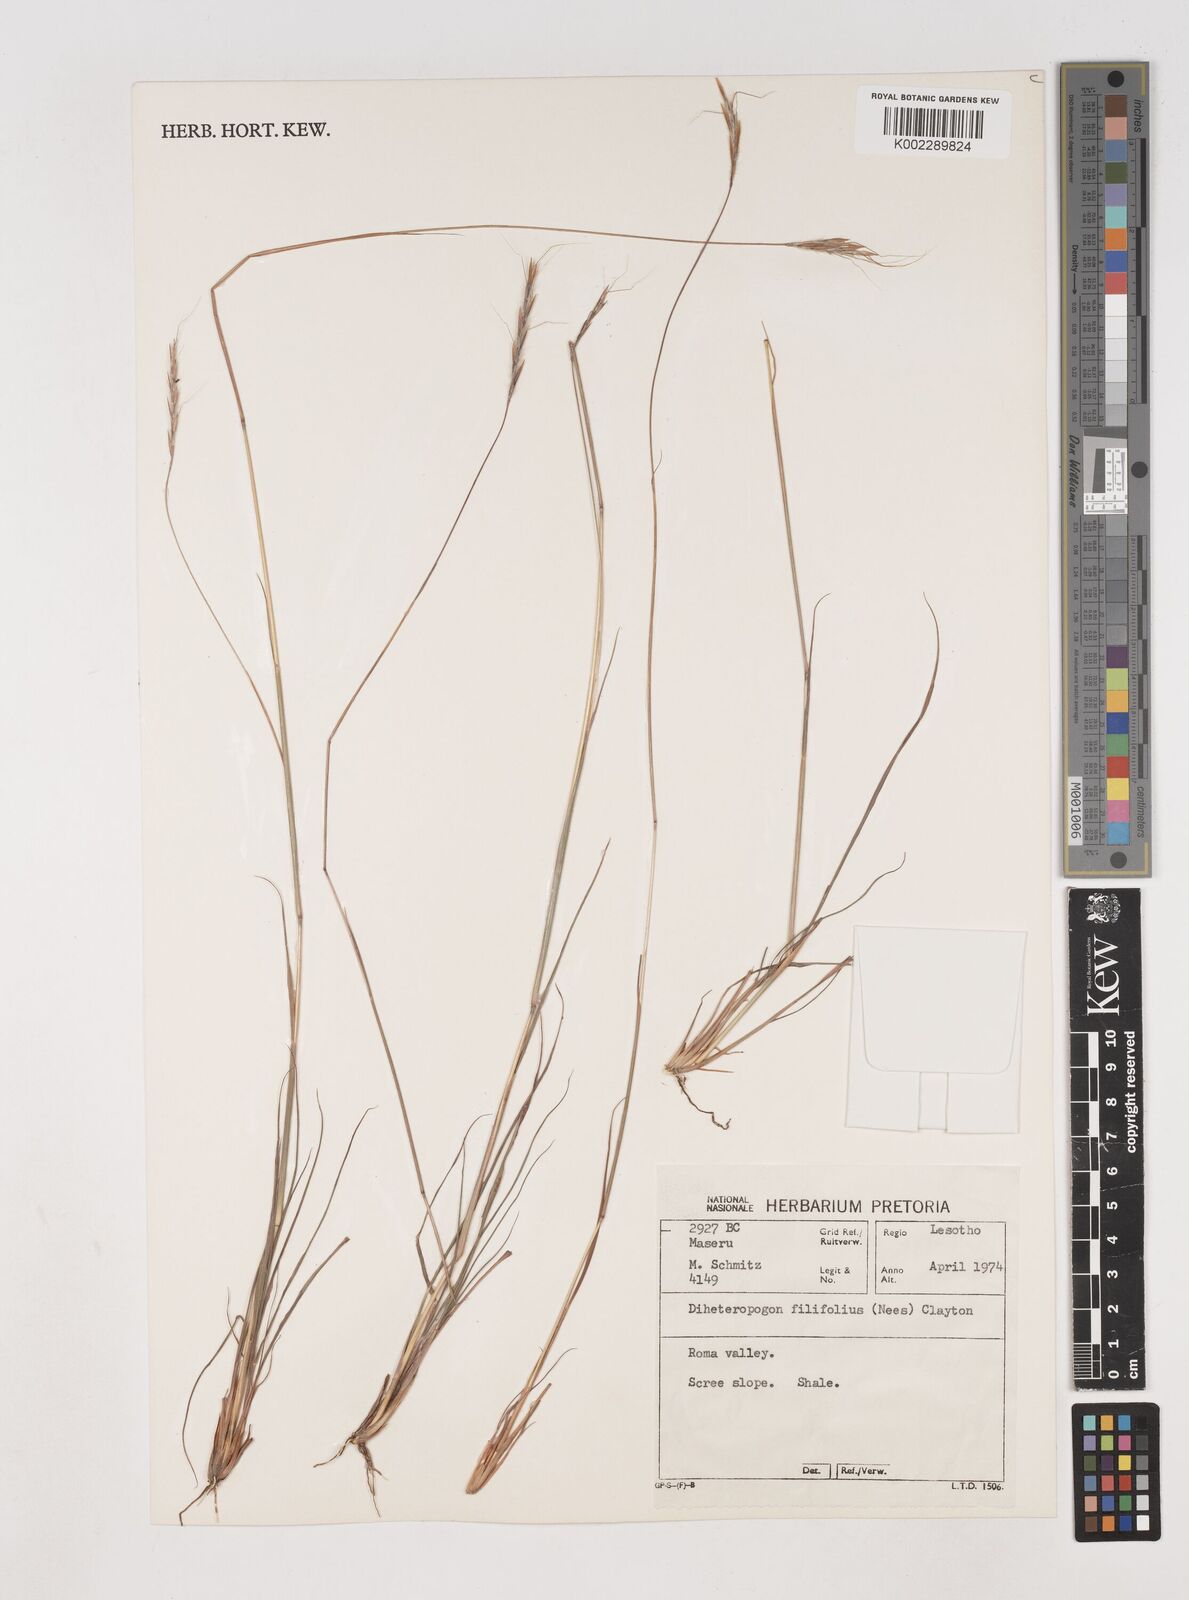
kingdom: Plantae
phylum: Tracheophyta
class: Liliopsida
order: Poales
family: Poaceae
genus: Diheteropogon
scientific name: Diheteropogon filifolius
